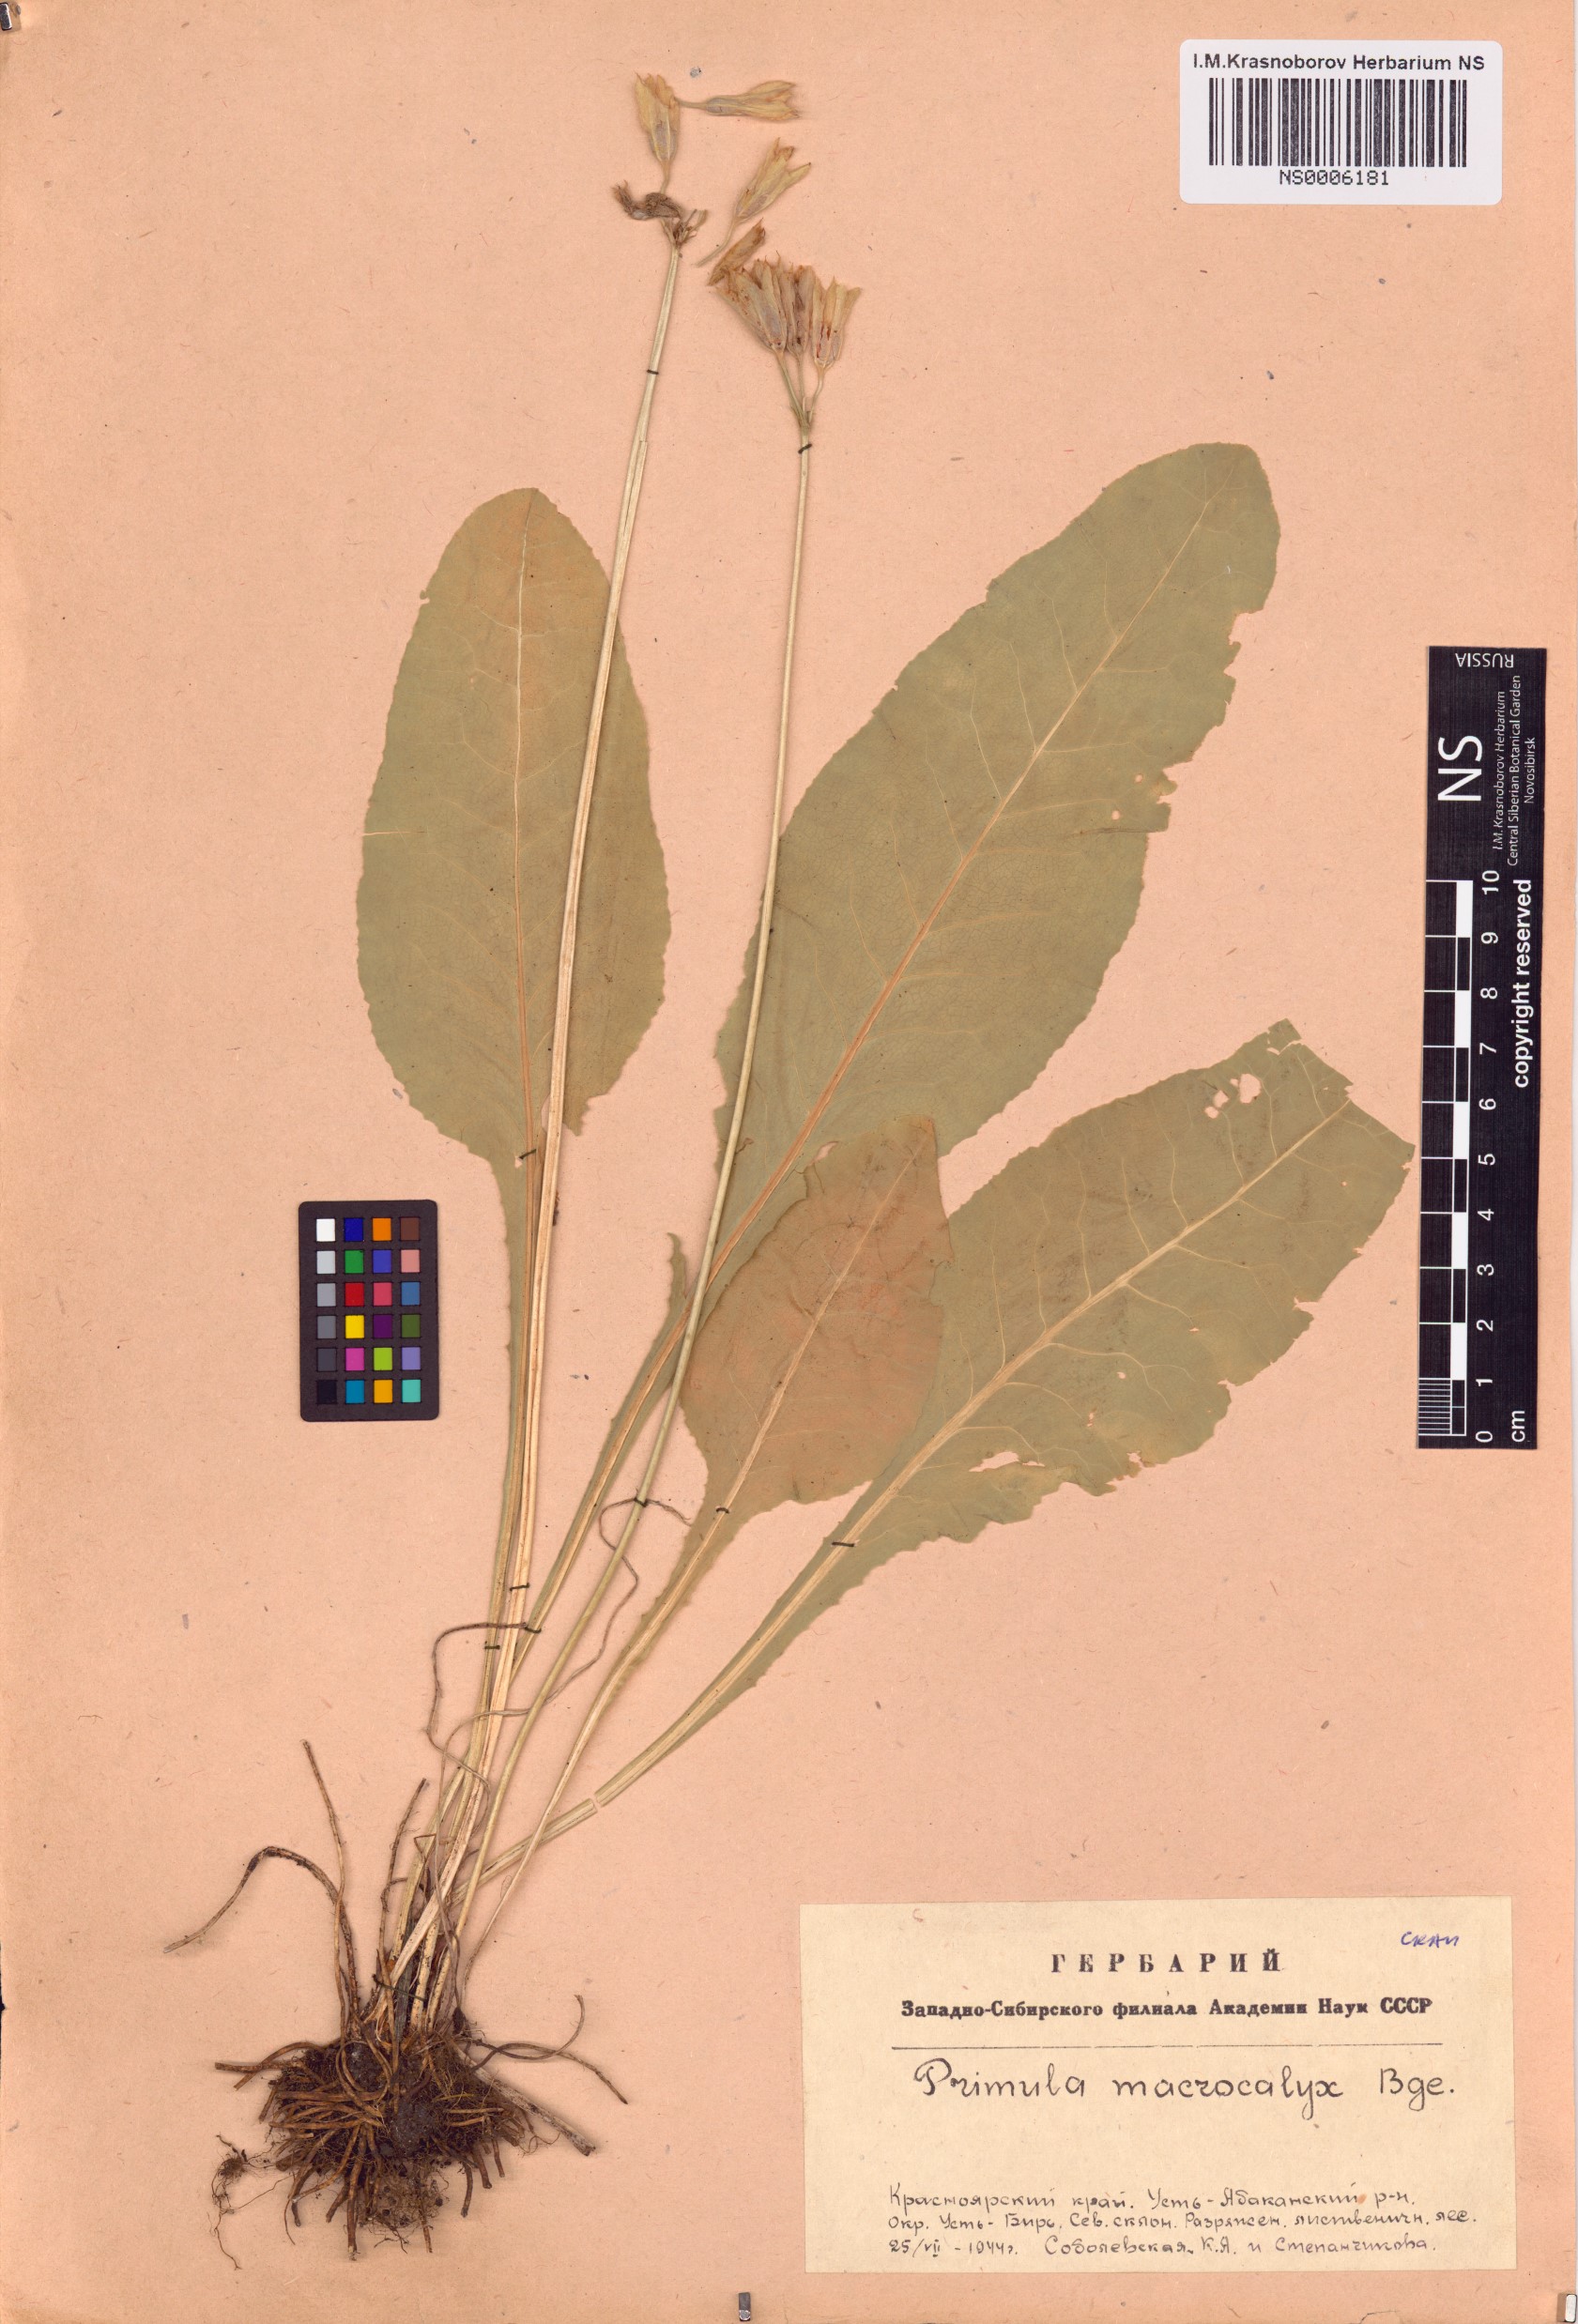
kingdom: Plantae
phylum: Tracheophyta
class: Magnoliopsida
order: Ericales
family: Primulaceae
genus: Primula
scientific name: Primula veris
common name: Cowslip
